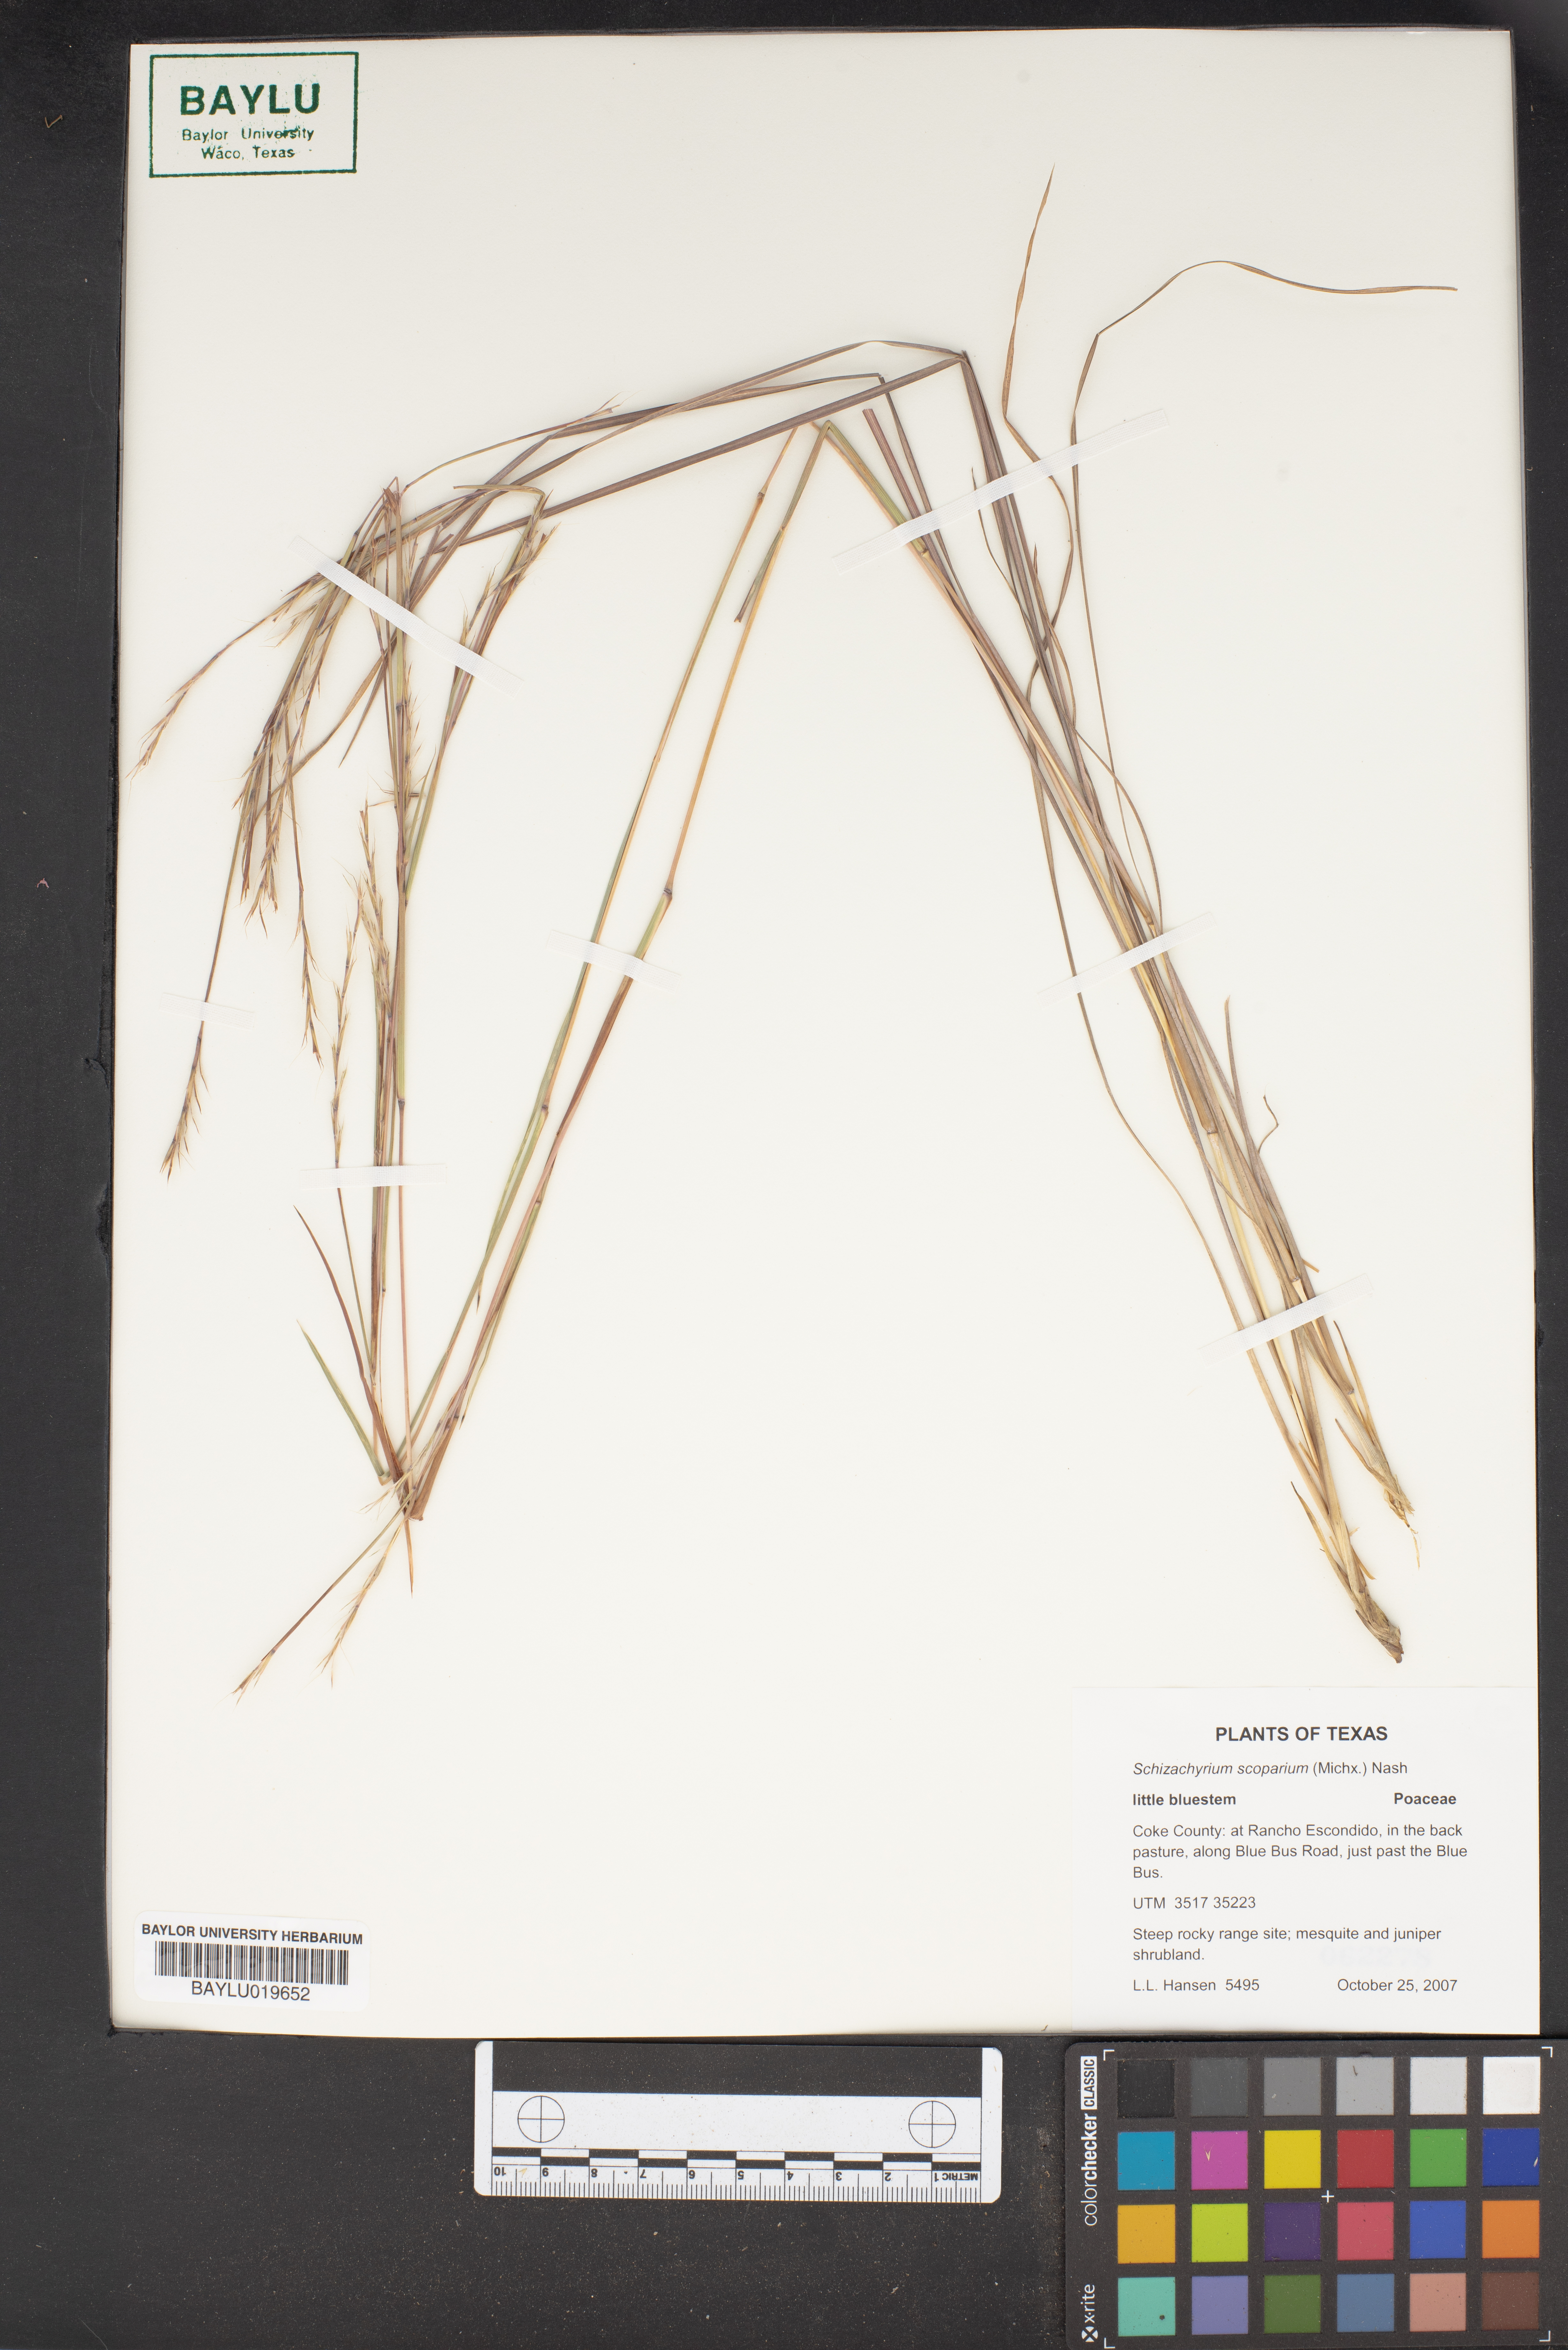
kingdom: Plantae
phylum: Tracheophyta
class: Liliopsida
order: Poales
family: Poaceae
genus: Schizachyrium
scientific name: Schizachyrium scoparium
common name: Little bluestem
